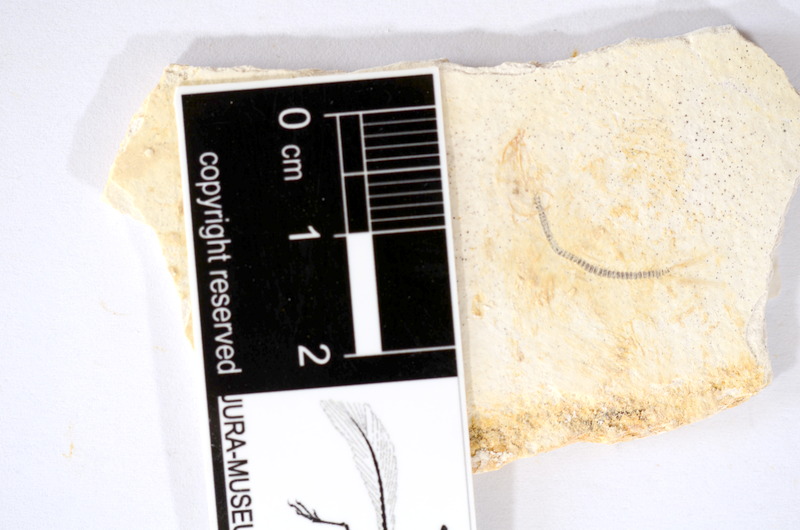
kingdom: Animalia
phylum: Chordata
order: Salmoniformes
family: Orthogonikleithridae
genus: Orthogonikleithrus
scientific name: Orthogonikleithrus hoelli
